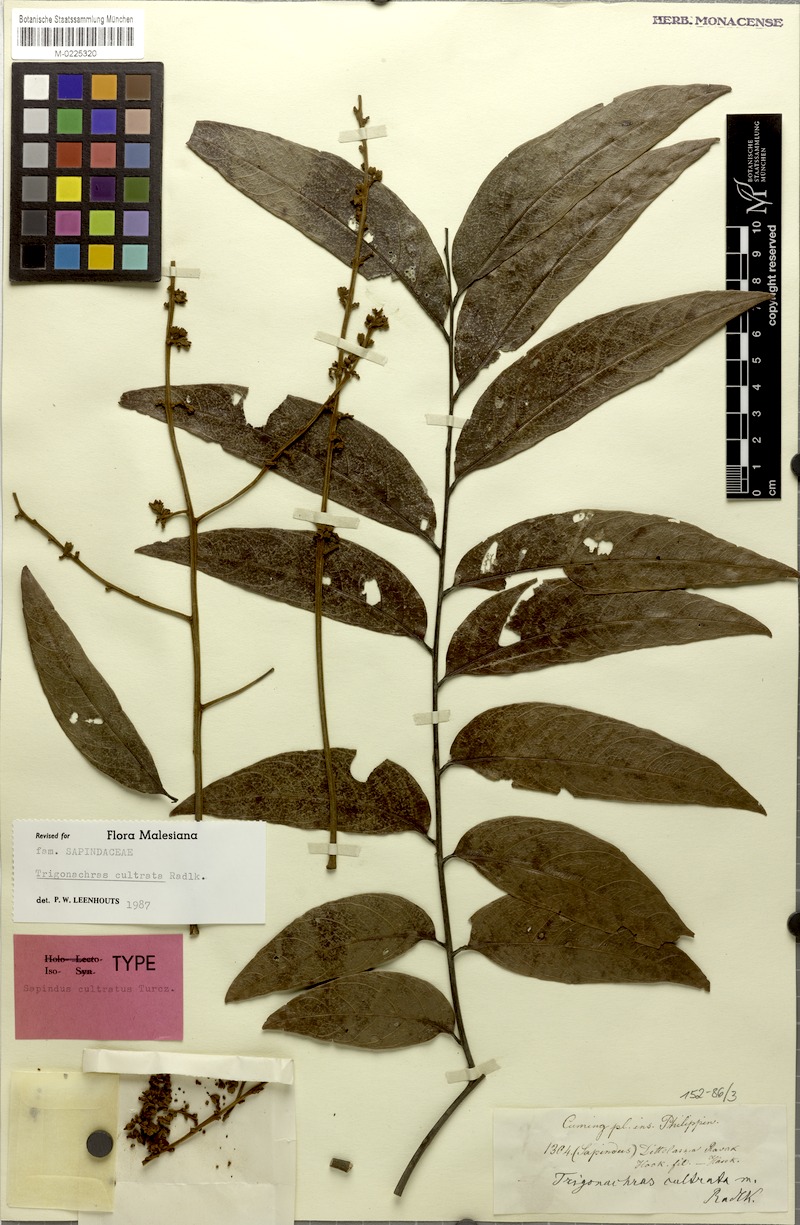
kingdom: Plantae
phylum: Tracheophyta
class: Magnoliopsida
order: Sapindales
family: Sapindaceae
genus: Trigonachras
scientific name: Trigonachras cultrata
